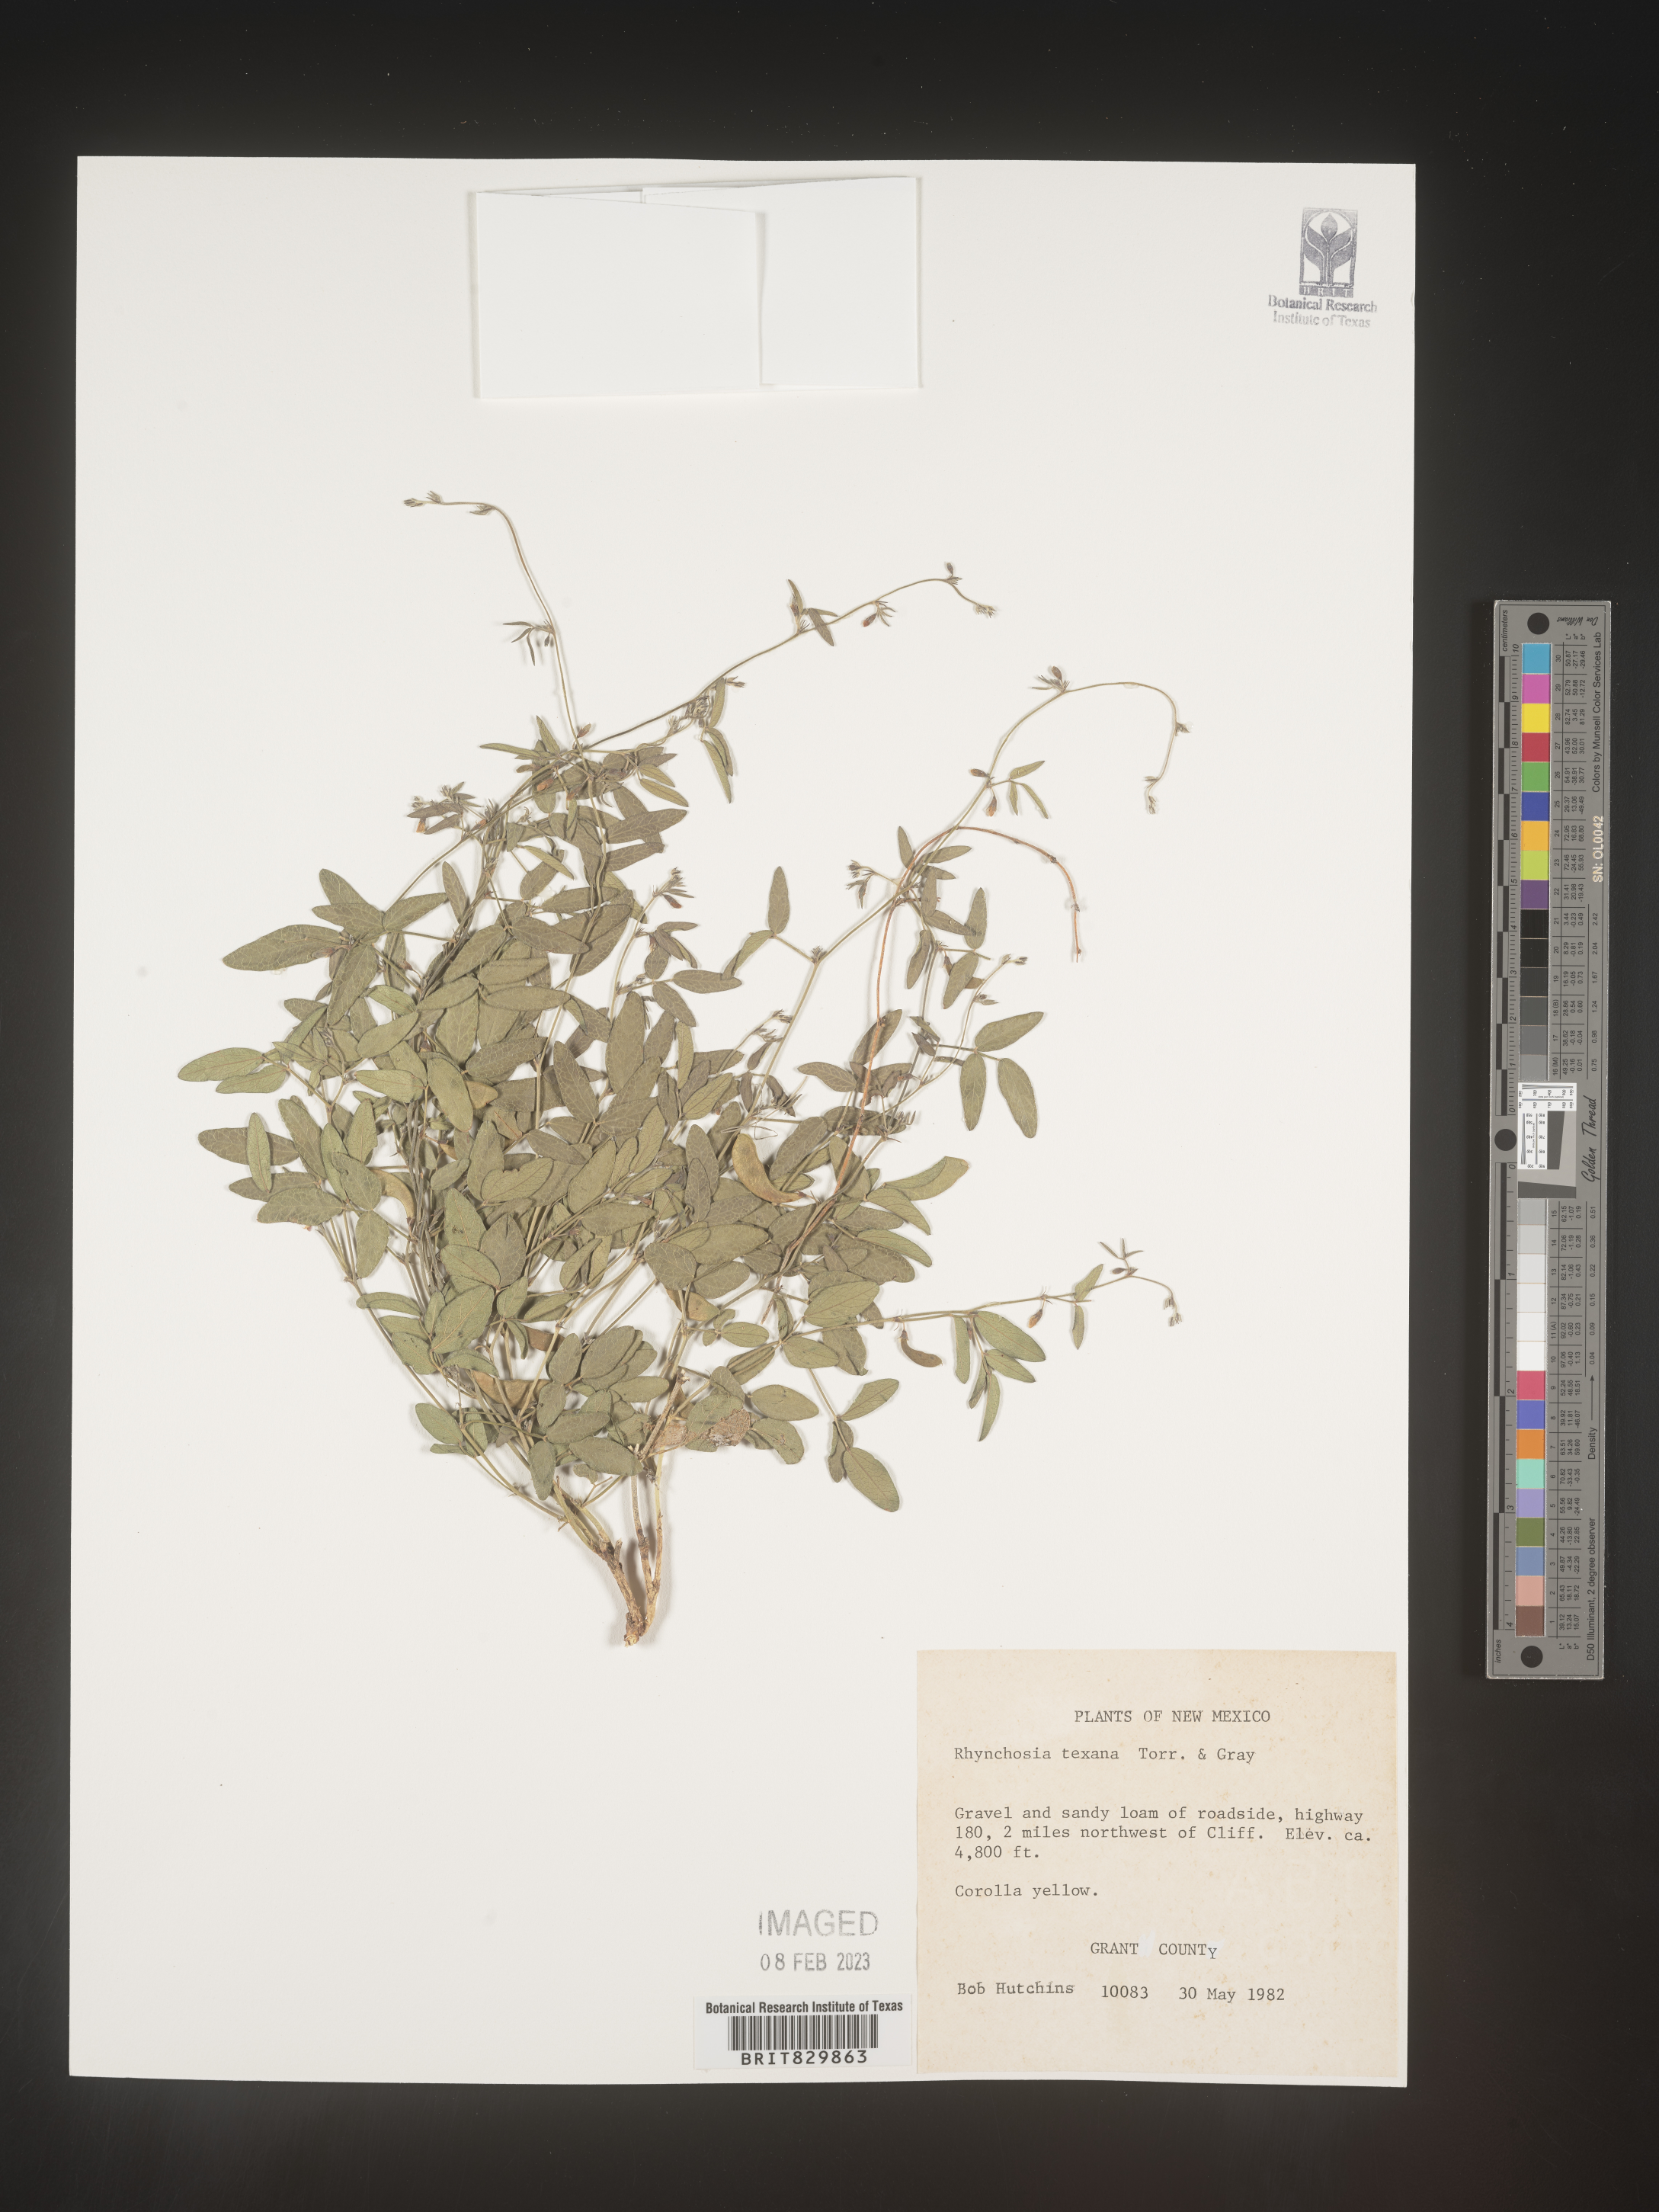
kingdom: Plantae
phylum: Tracheophyta
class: Magnoliopsida
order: Fabales
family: Fabaceae
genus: Rhynchosia
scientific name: Rhynchosia senna
